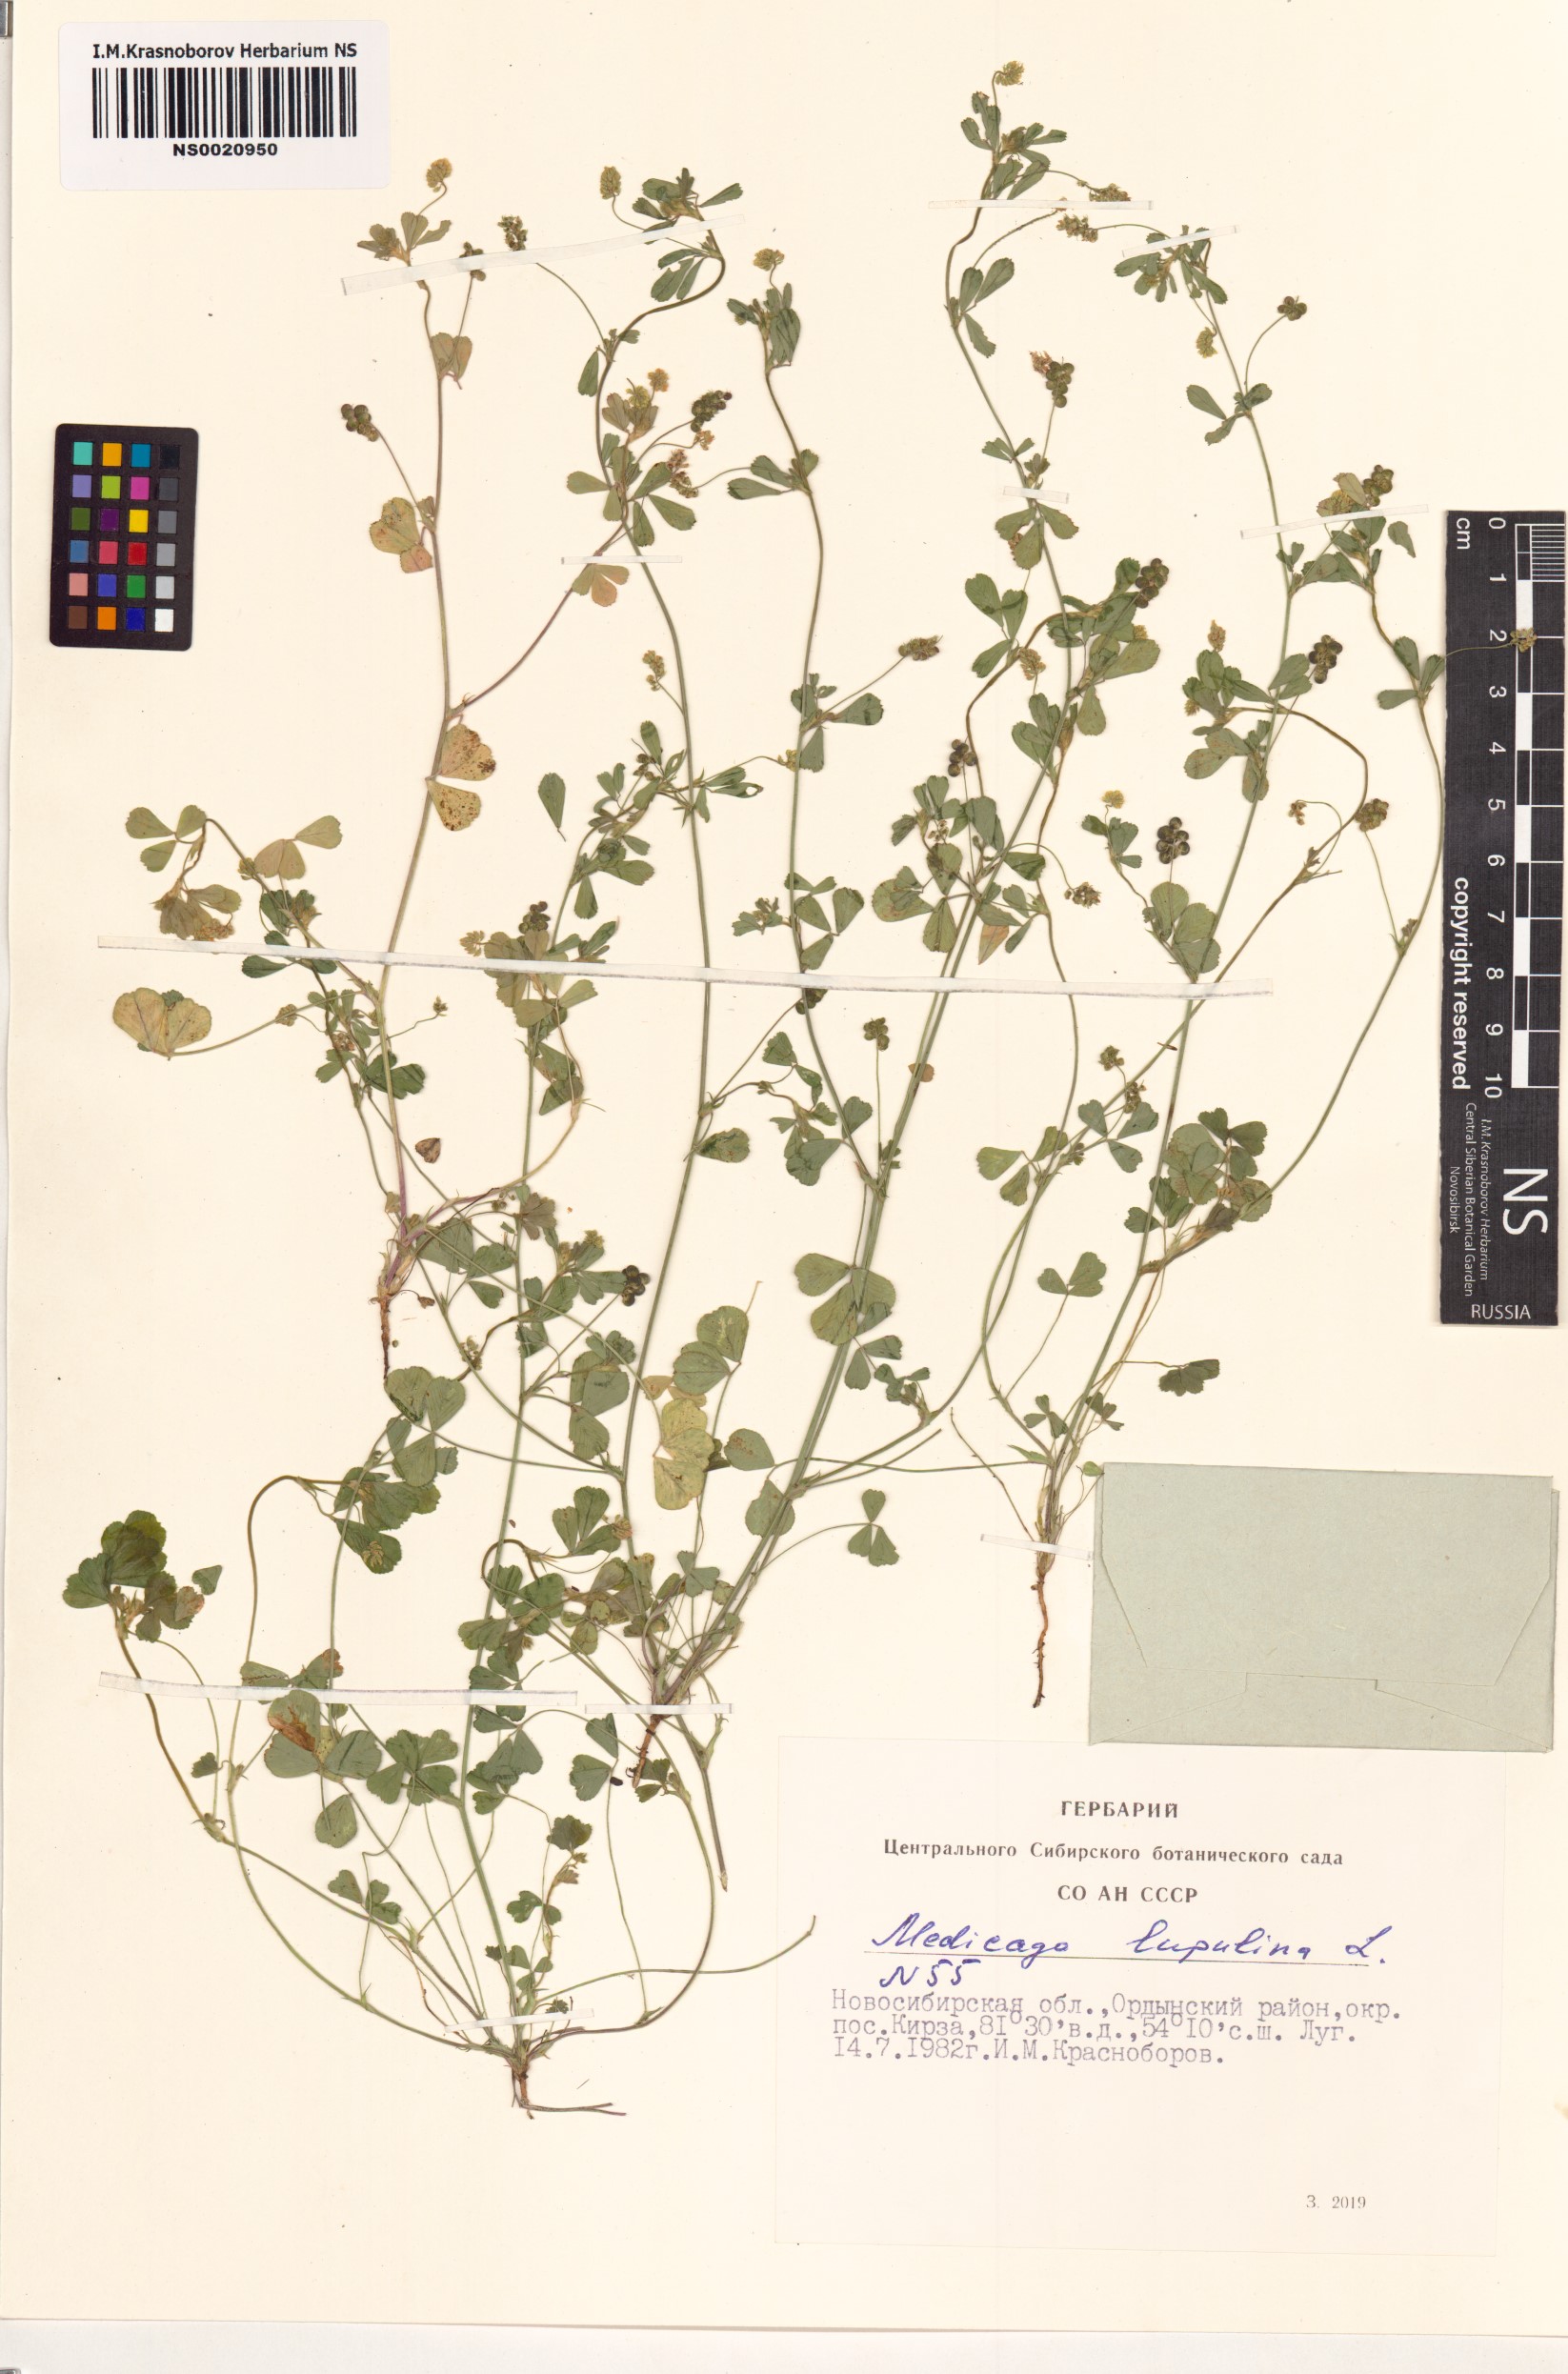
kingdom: Plantae
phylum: Tracheophyta
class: Magnoliopsida
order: Fabales
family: Fabaceae
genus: Medicago
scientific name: Medicago lupulina
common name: Black medick
